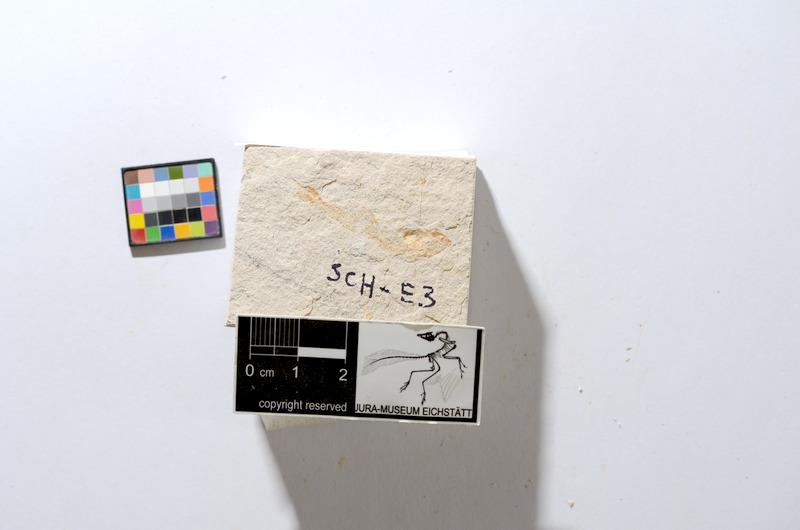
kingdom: Animalia
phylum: Chordata
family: Ascalaboidae
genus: Tharsis
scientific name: Tharsis dubius
